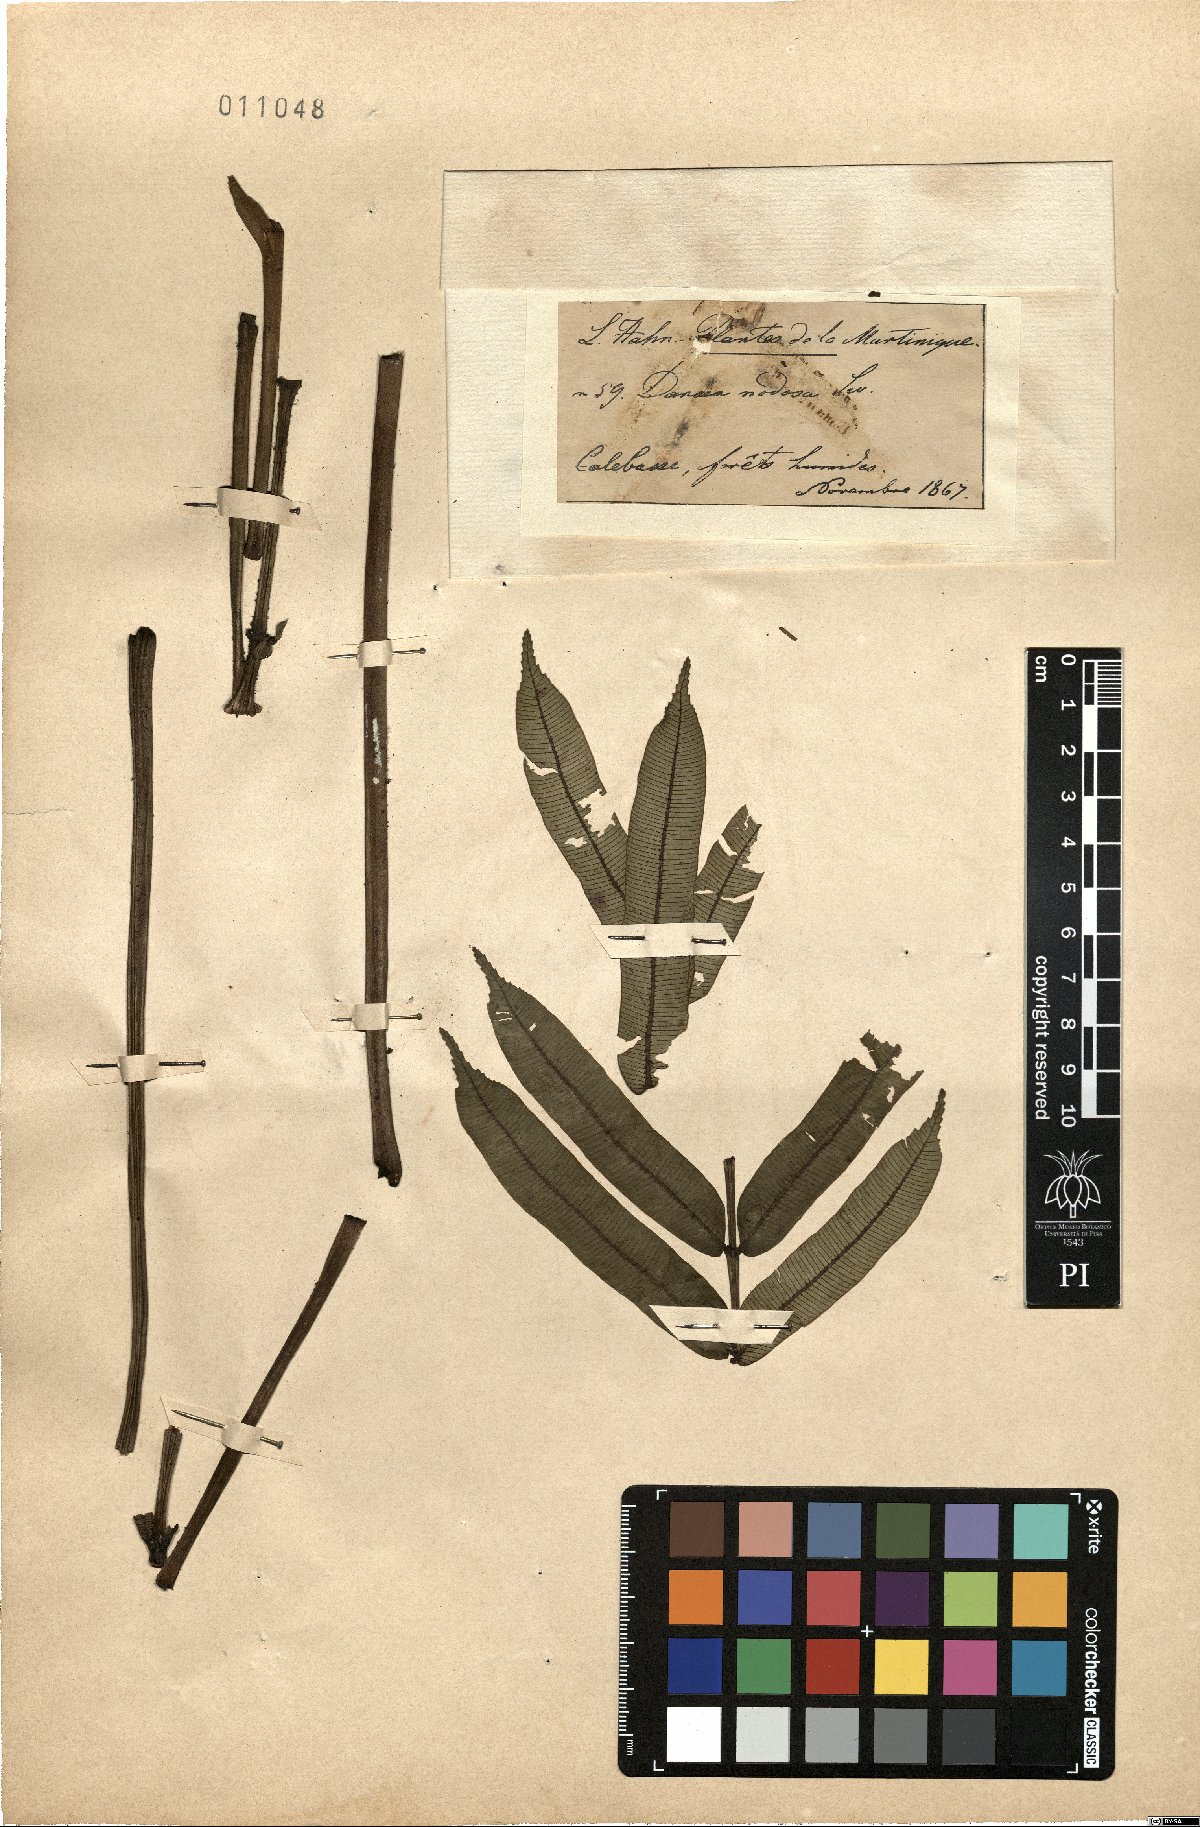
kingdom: Plantae
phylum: Tracheophyta
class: Polypodiopsida
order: Marattiales
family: Marattiaceae
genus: Danaea
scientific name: Danaea nodosa
